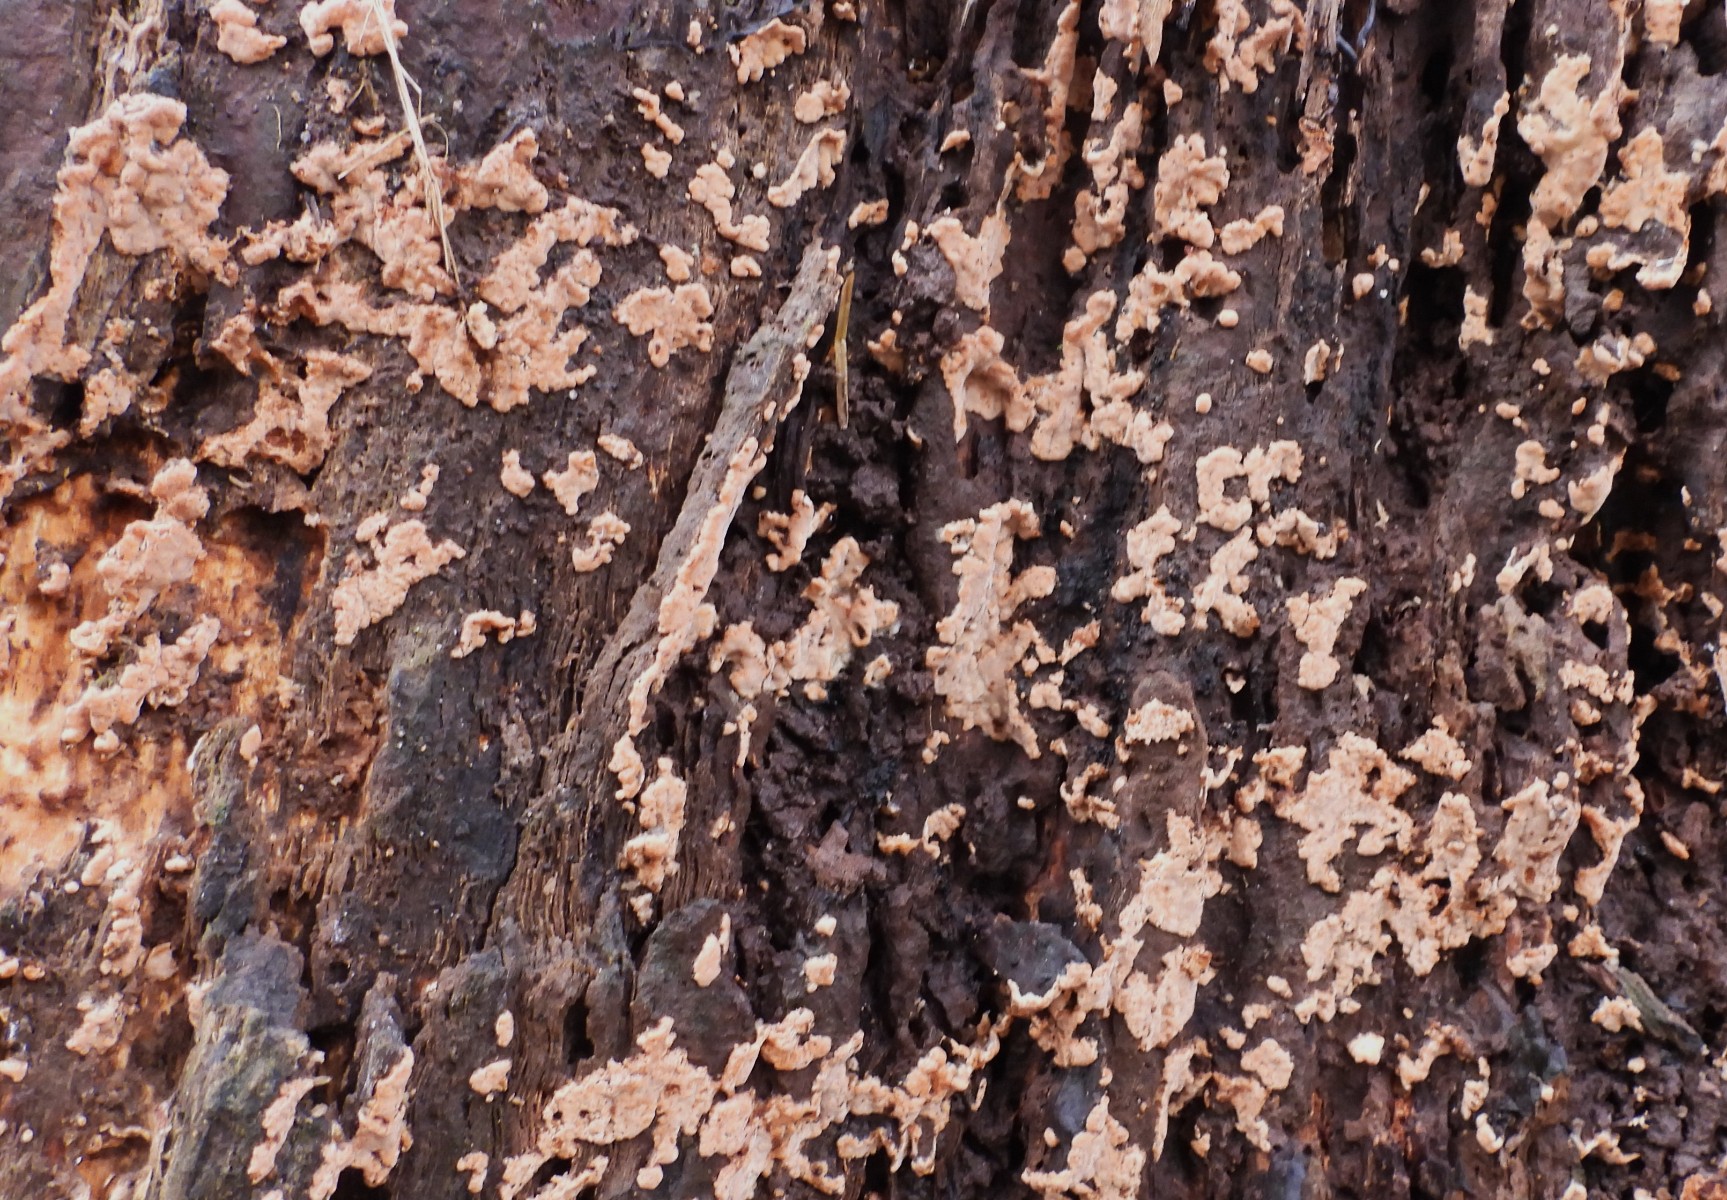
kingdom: Fungi
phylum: Basidiomycota
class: Agaricomycetes
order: Russulales
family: Peniophoraceae
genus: Gloiothele
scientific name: Gloiothele lactescens
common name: bitter olieskind
